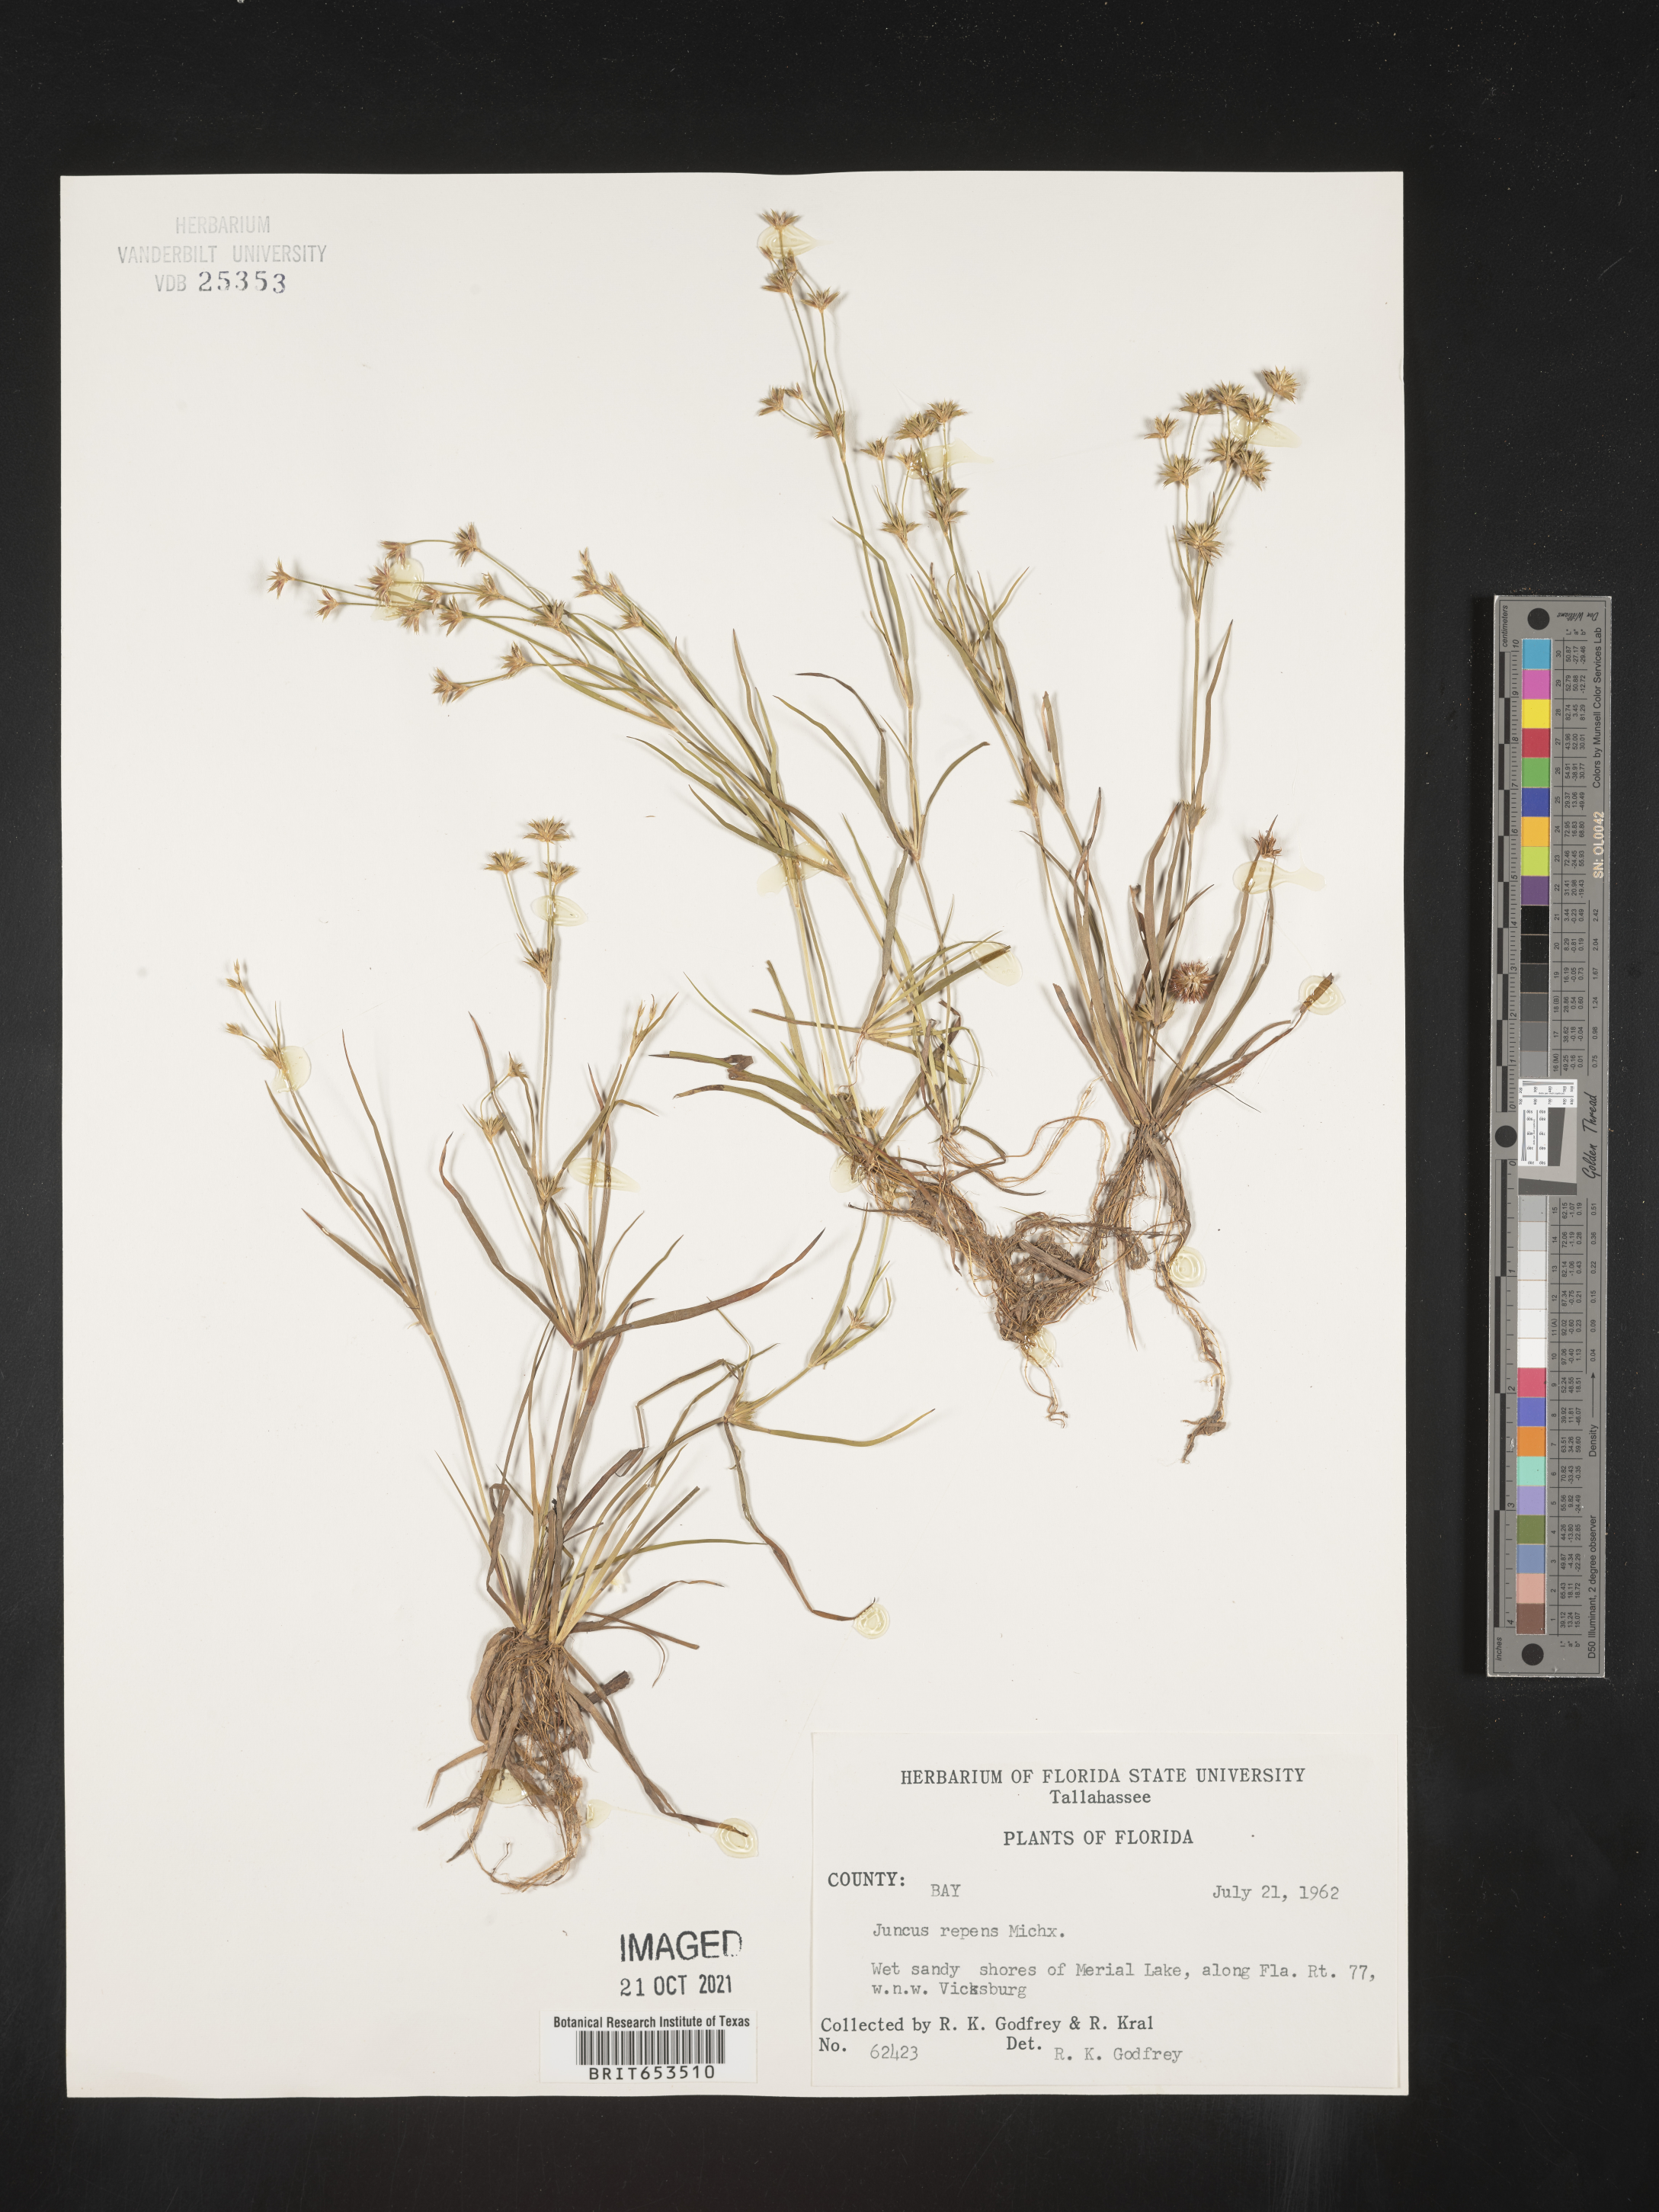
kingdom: Plantae
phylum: Tracheophyta
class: Liliopsida
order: Poales
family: Juncaceae
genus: Juncus
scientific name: Juncus repens
